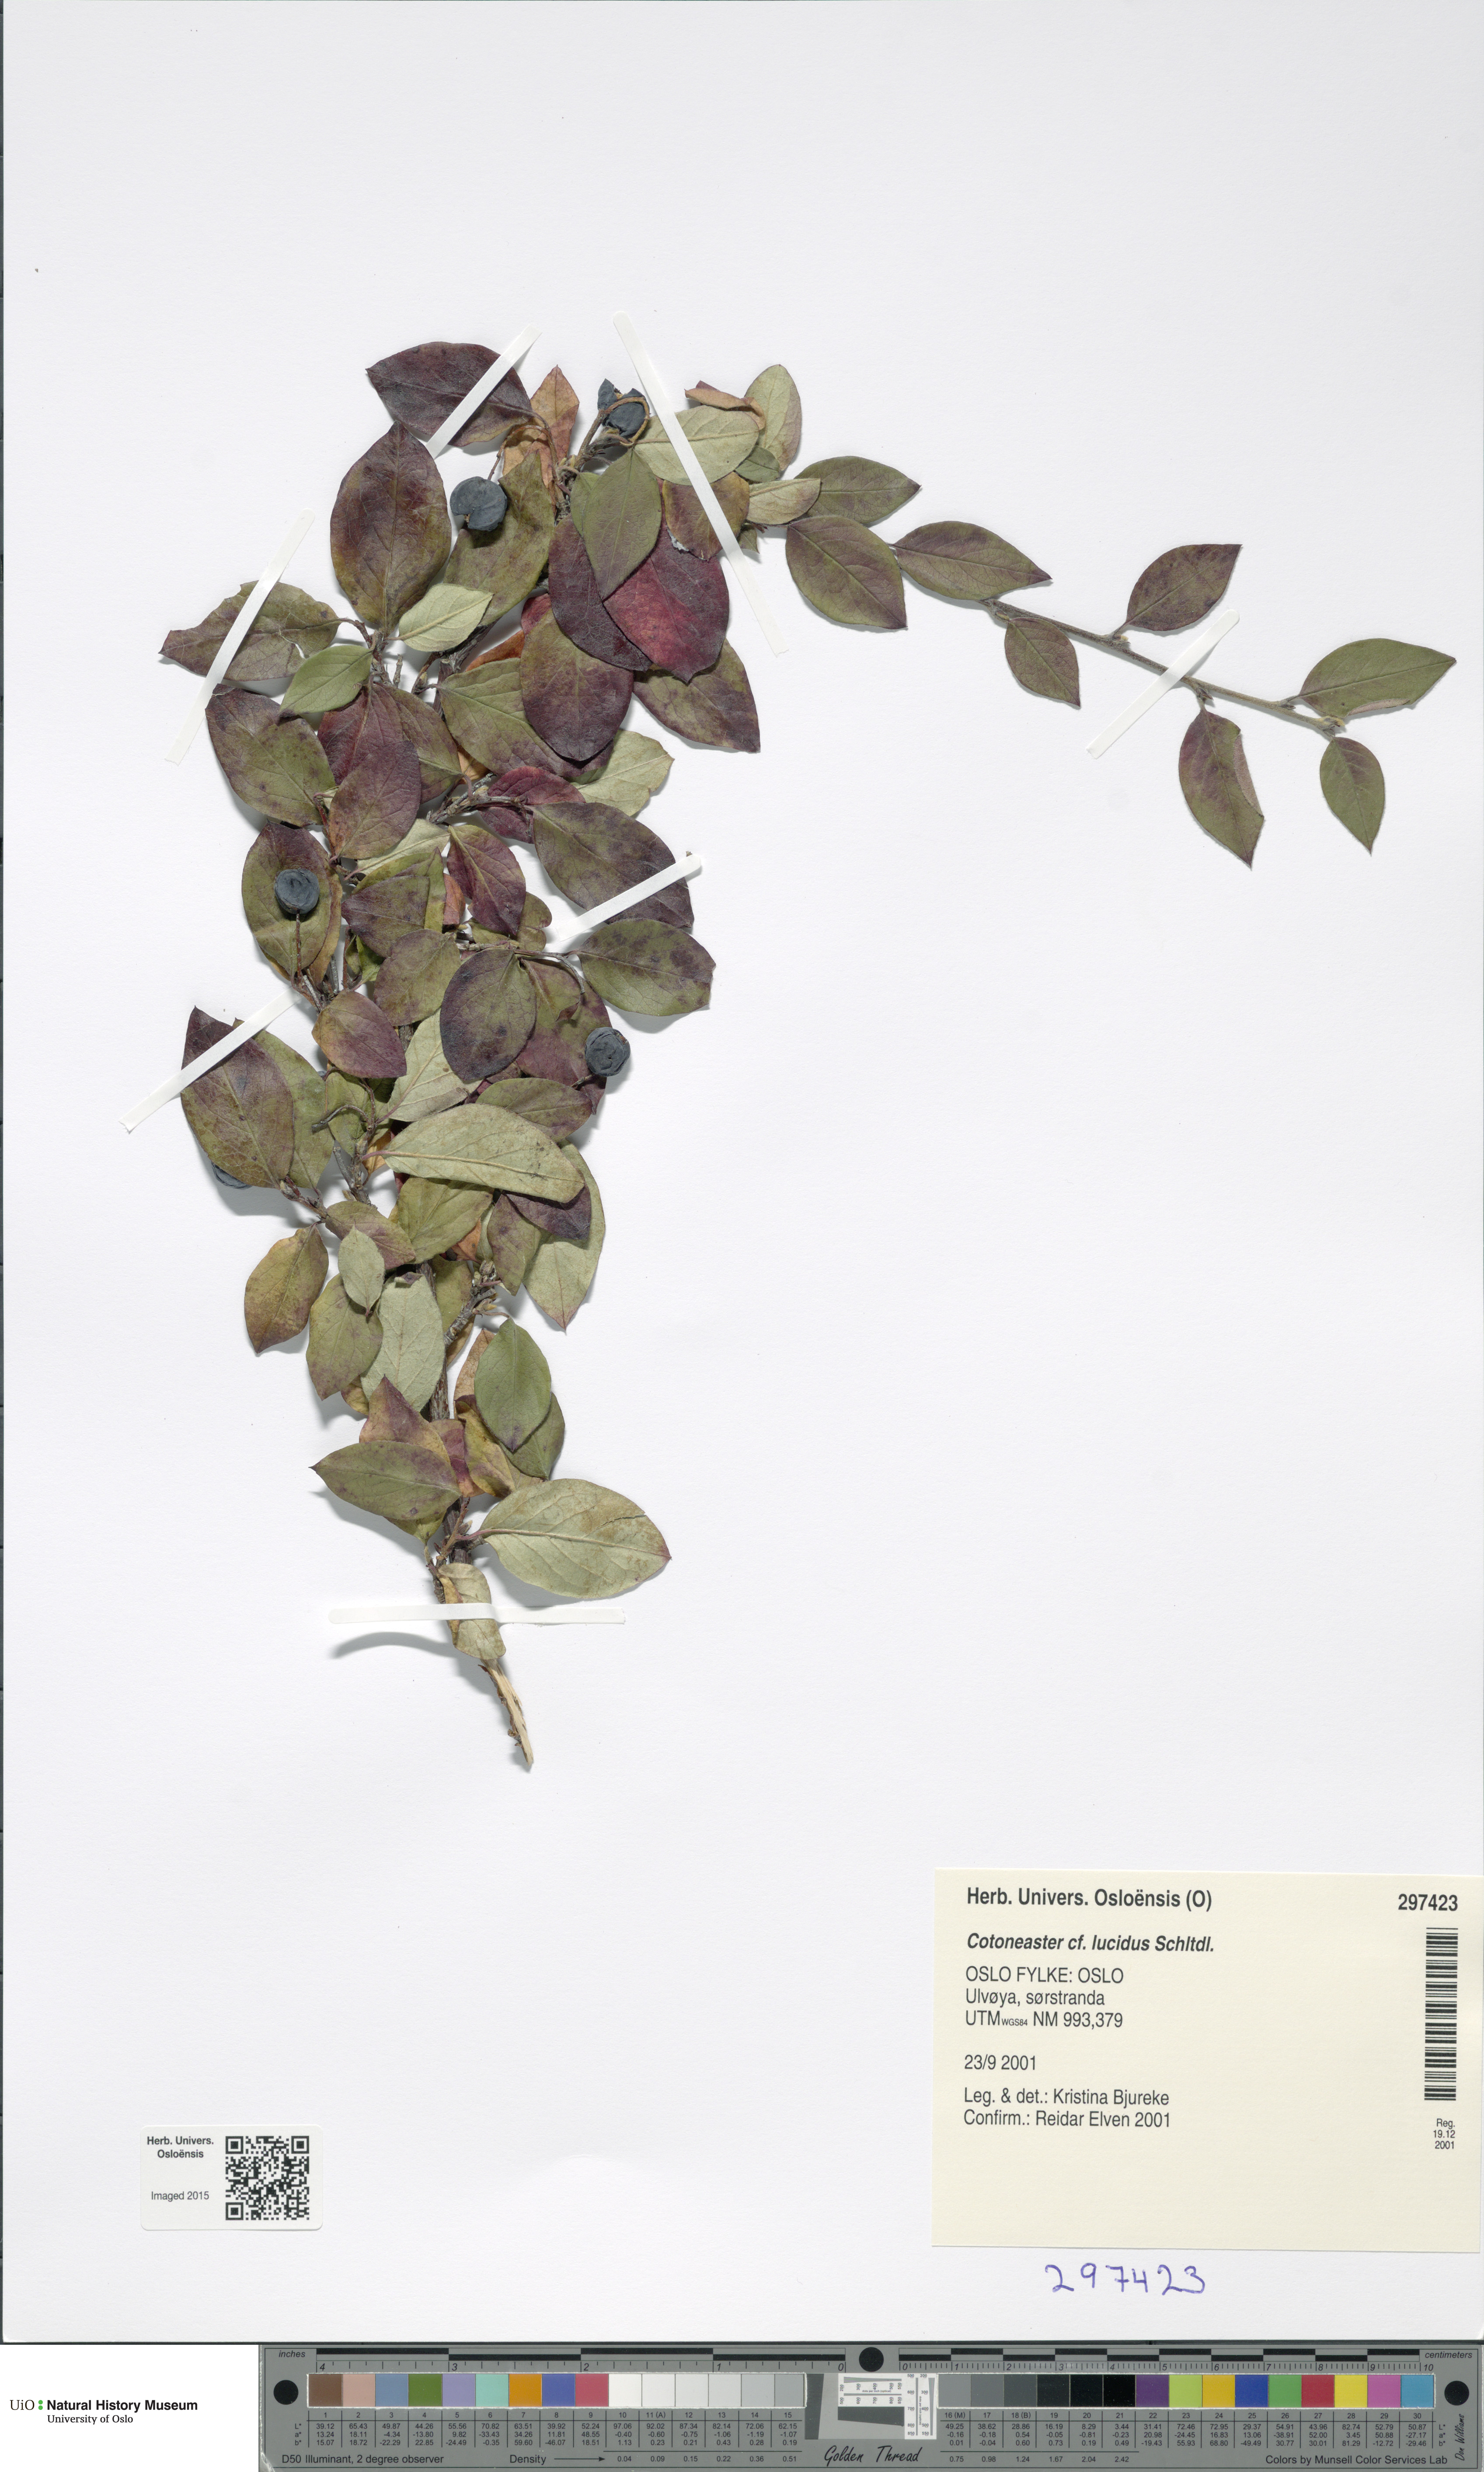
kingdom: Plantae
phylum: Tracheophyta
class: Magnoliopsida
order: Rosales
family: Rosaceae
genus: Cotoneaster
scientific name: Cotoneaster acutifolius
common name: Peking cotoneaster
